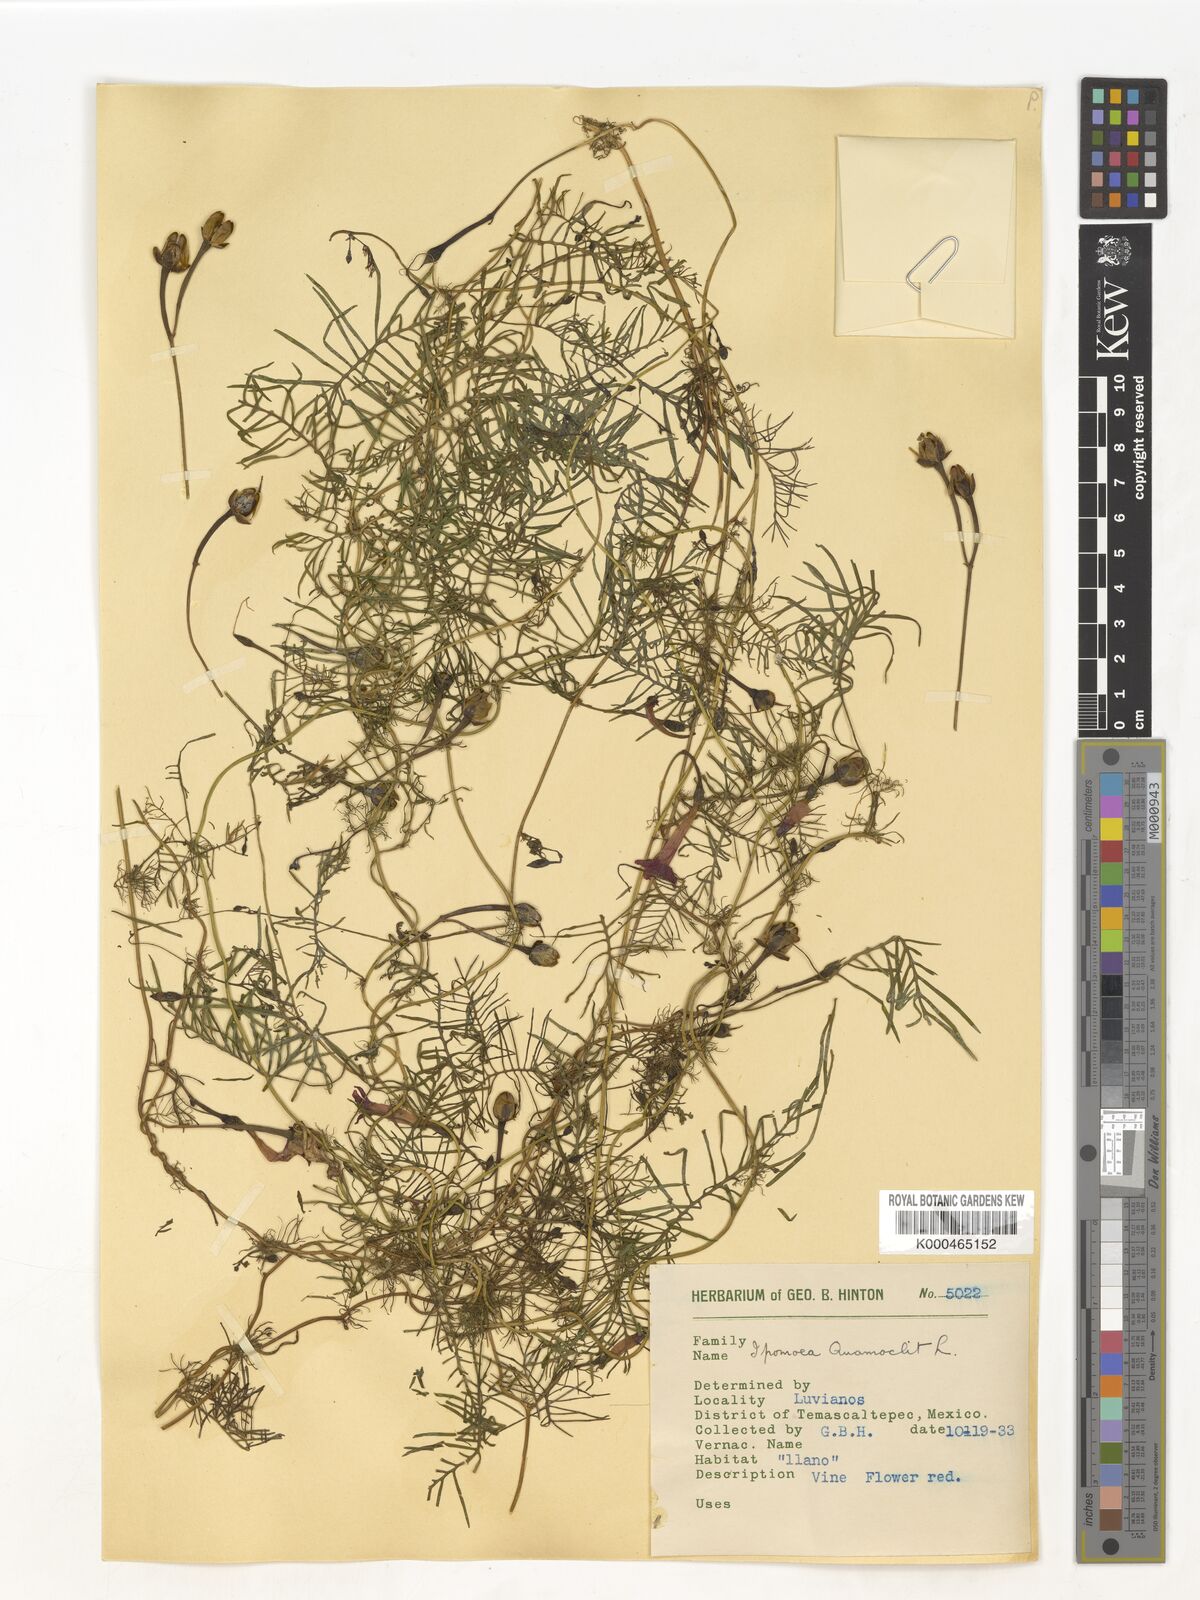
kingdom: Plantae
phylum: Tracheophyta
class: Magnoliopsida
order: Solanales
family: Convolvulaceae
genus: Ipomoea
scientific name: Ipomoea quamoclit
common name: Cypress vine
